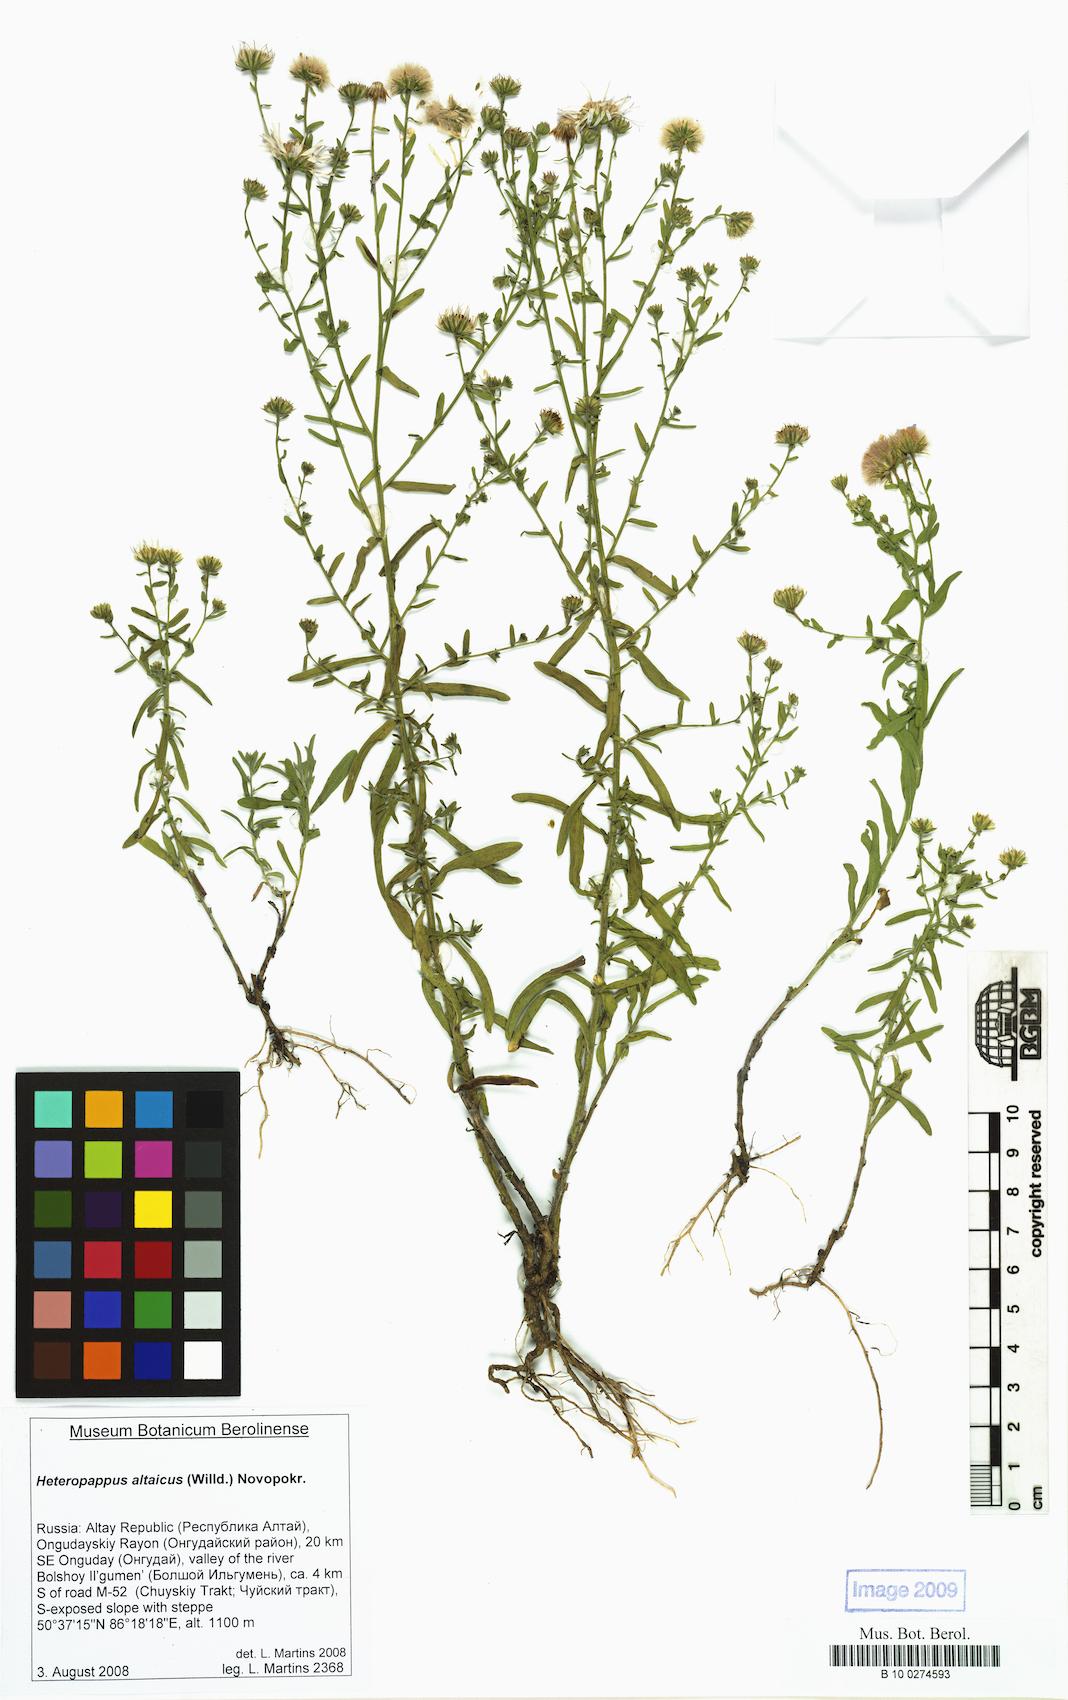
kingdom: Plantae
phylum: Tracheophyta
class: Magnoliopsida
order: Asterales
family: Asteraceae
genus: Heteropappus
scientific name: Heteropappus altaicus
